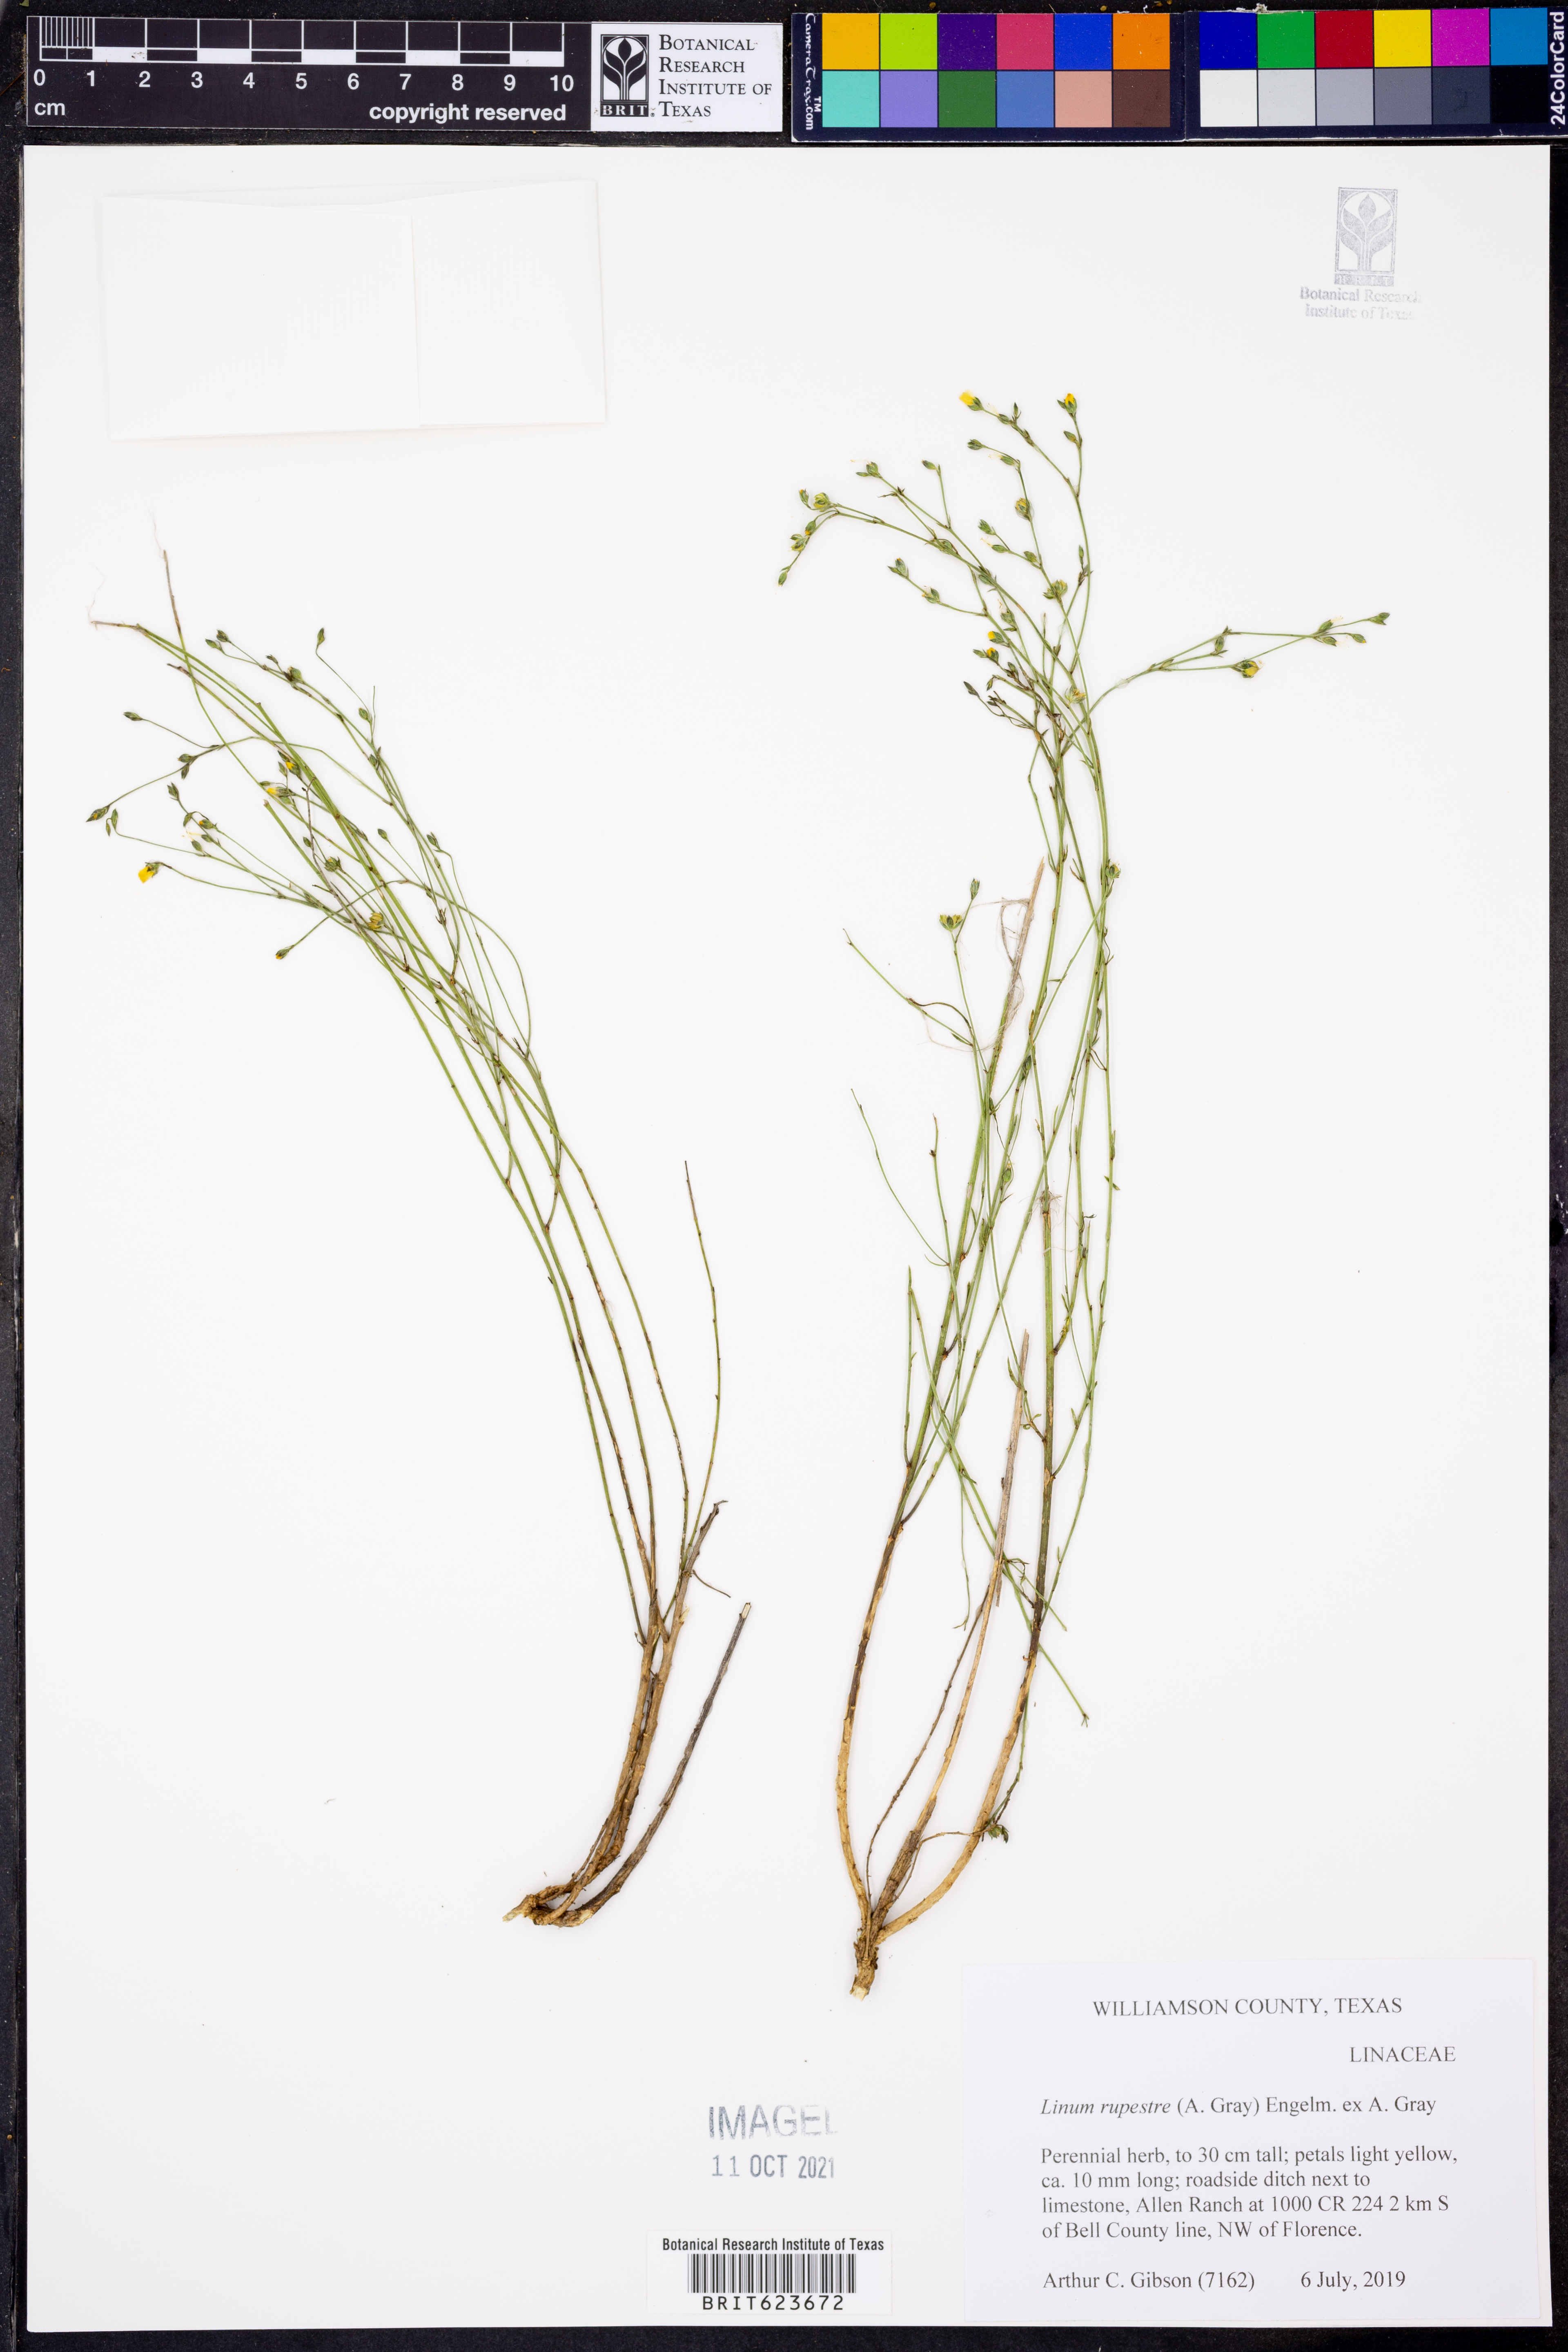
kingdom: Plantae
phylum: Tracheophyta
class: Magnoliopsida
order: Malpighiales
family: Linaceae
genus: Linum
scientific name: Linum rupestre
